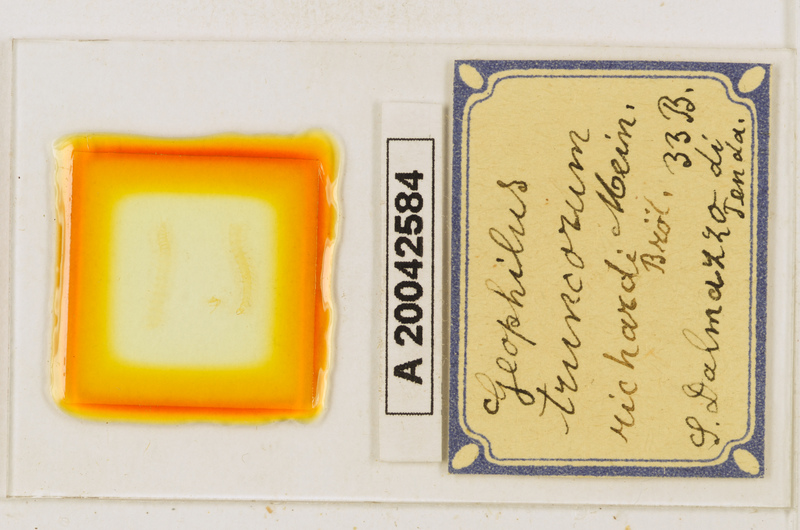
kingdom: Animalia
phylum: Arthropoda
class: Chilopoda
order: Geophilomorpha
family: Geophilidae
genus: Geophilus
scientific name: Geophilus truncorum
